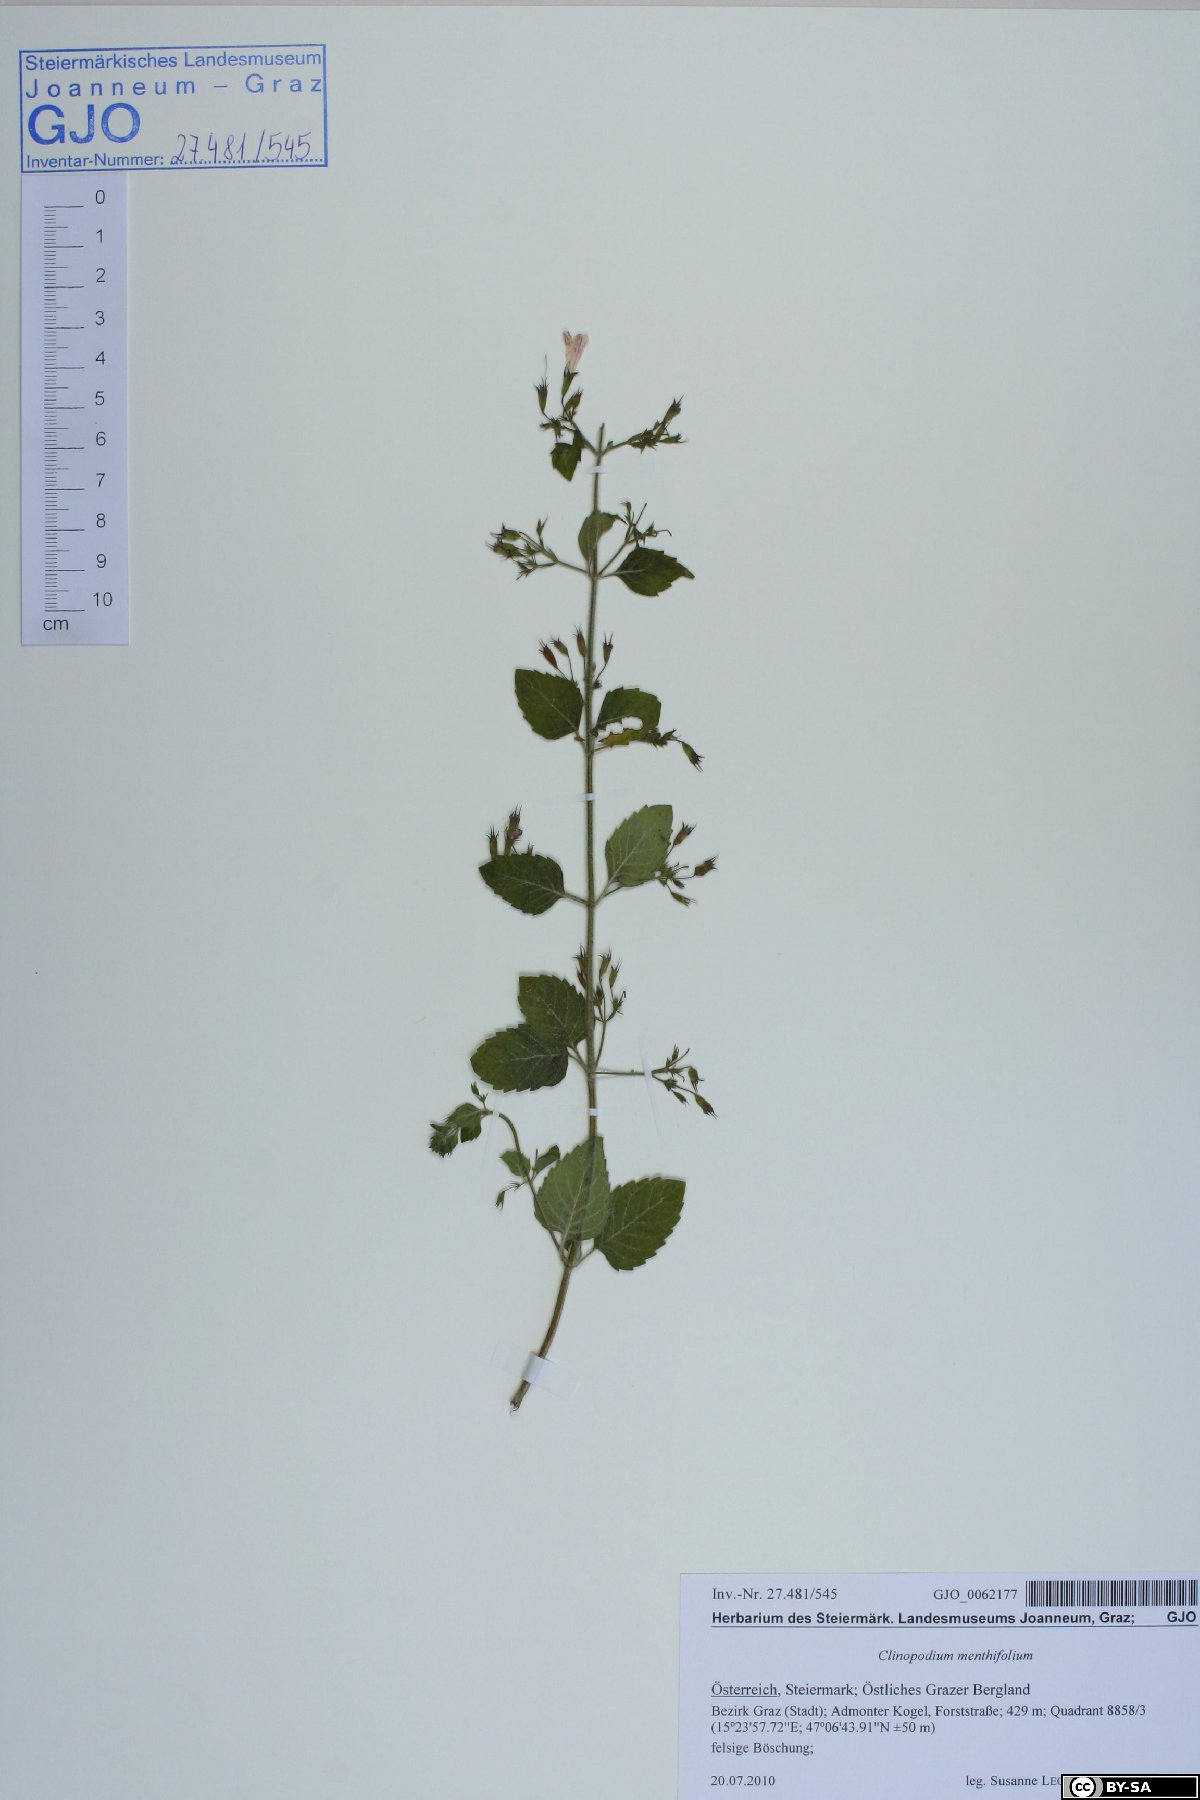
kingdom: Plantae
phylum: Tracheophyta
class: Magnoliopsida
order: Lamiales
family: Lamiaceae
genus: Clinopodium
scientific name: Clinopodium menthifolium
